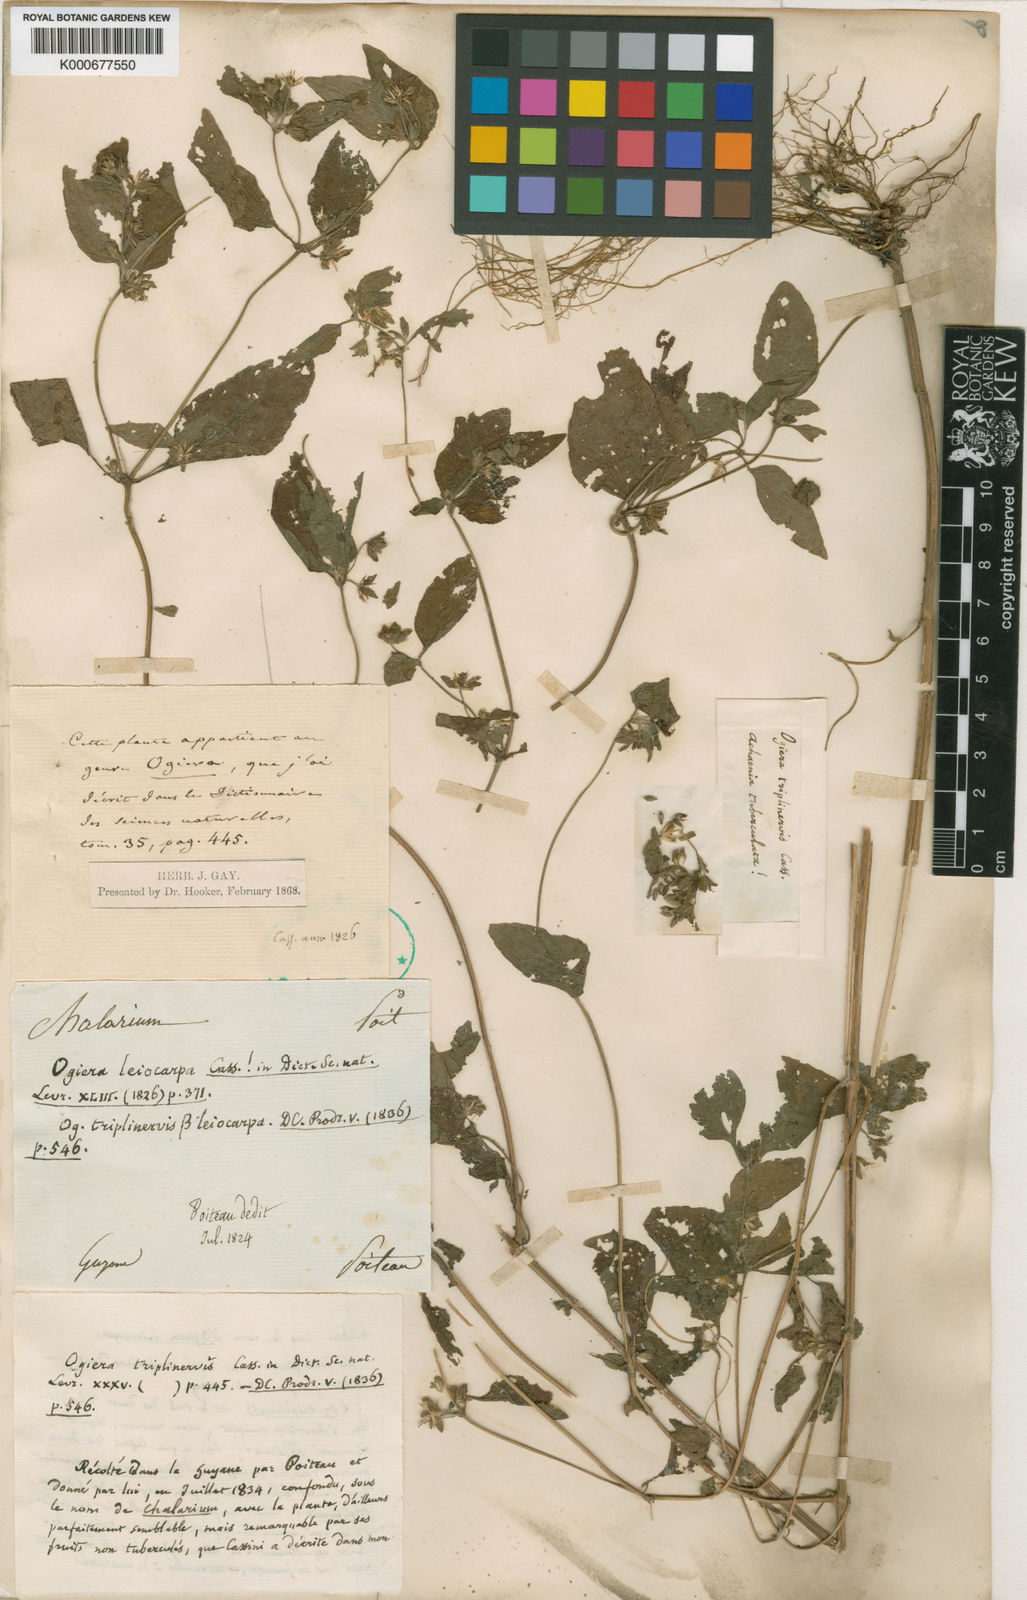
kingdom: Plantae
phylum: Tracheophyta
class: Magnoliopsida
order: Asterales
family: Asteraceae
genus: Eleutheranthera
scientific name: Eleutheranthera ruderalis
